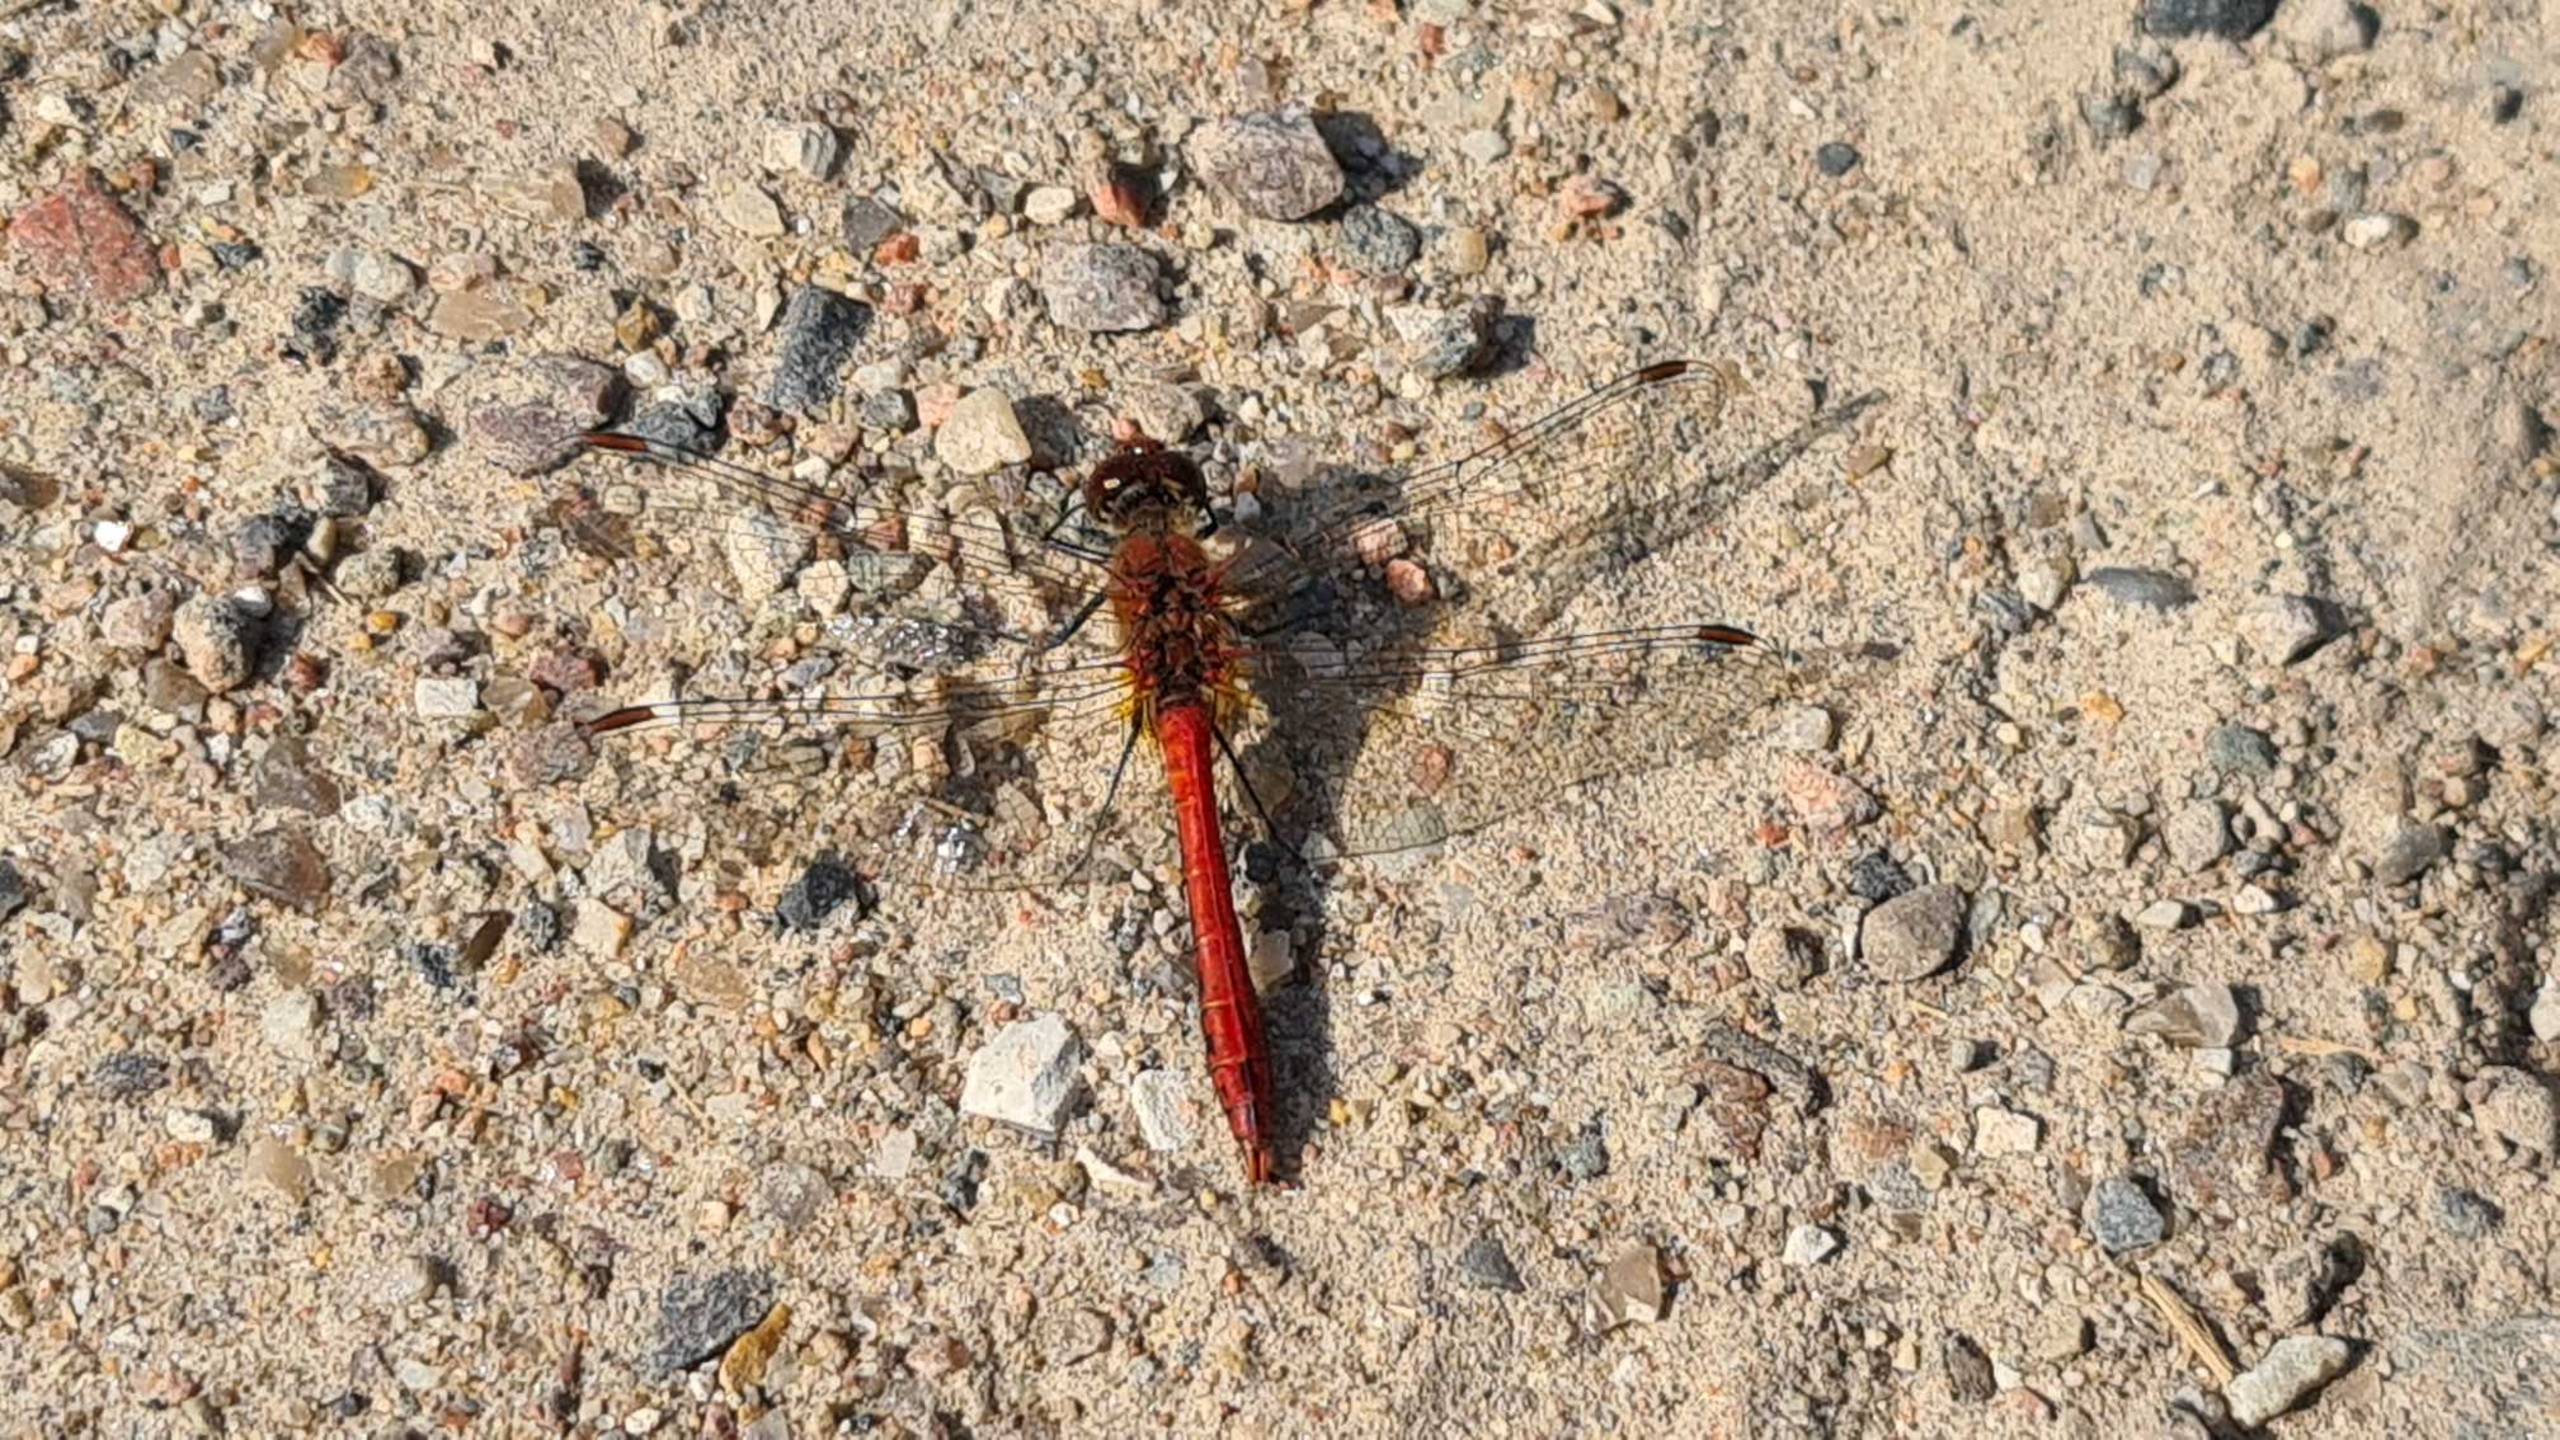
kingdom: Animalia
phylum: Arthropoda
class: Insecta
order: Odonata
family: Libellulidae
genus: Sympetrum
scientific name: Sympetrum sanguineum
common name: Blodrød hedelibel
